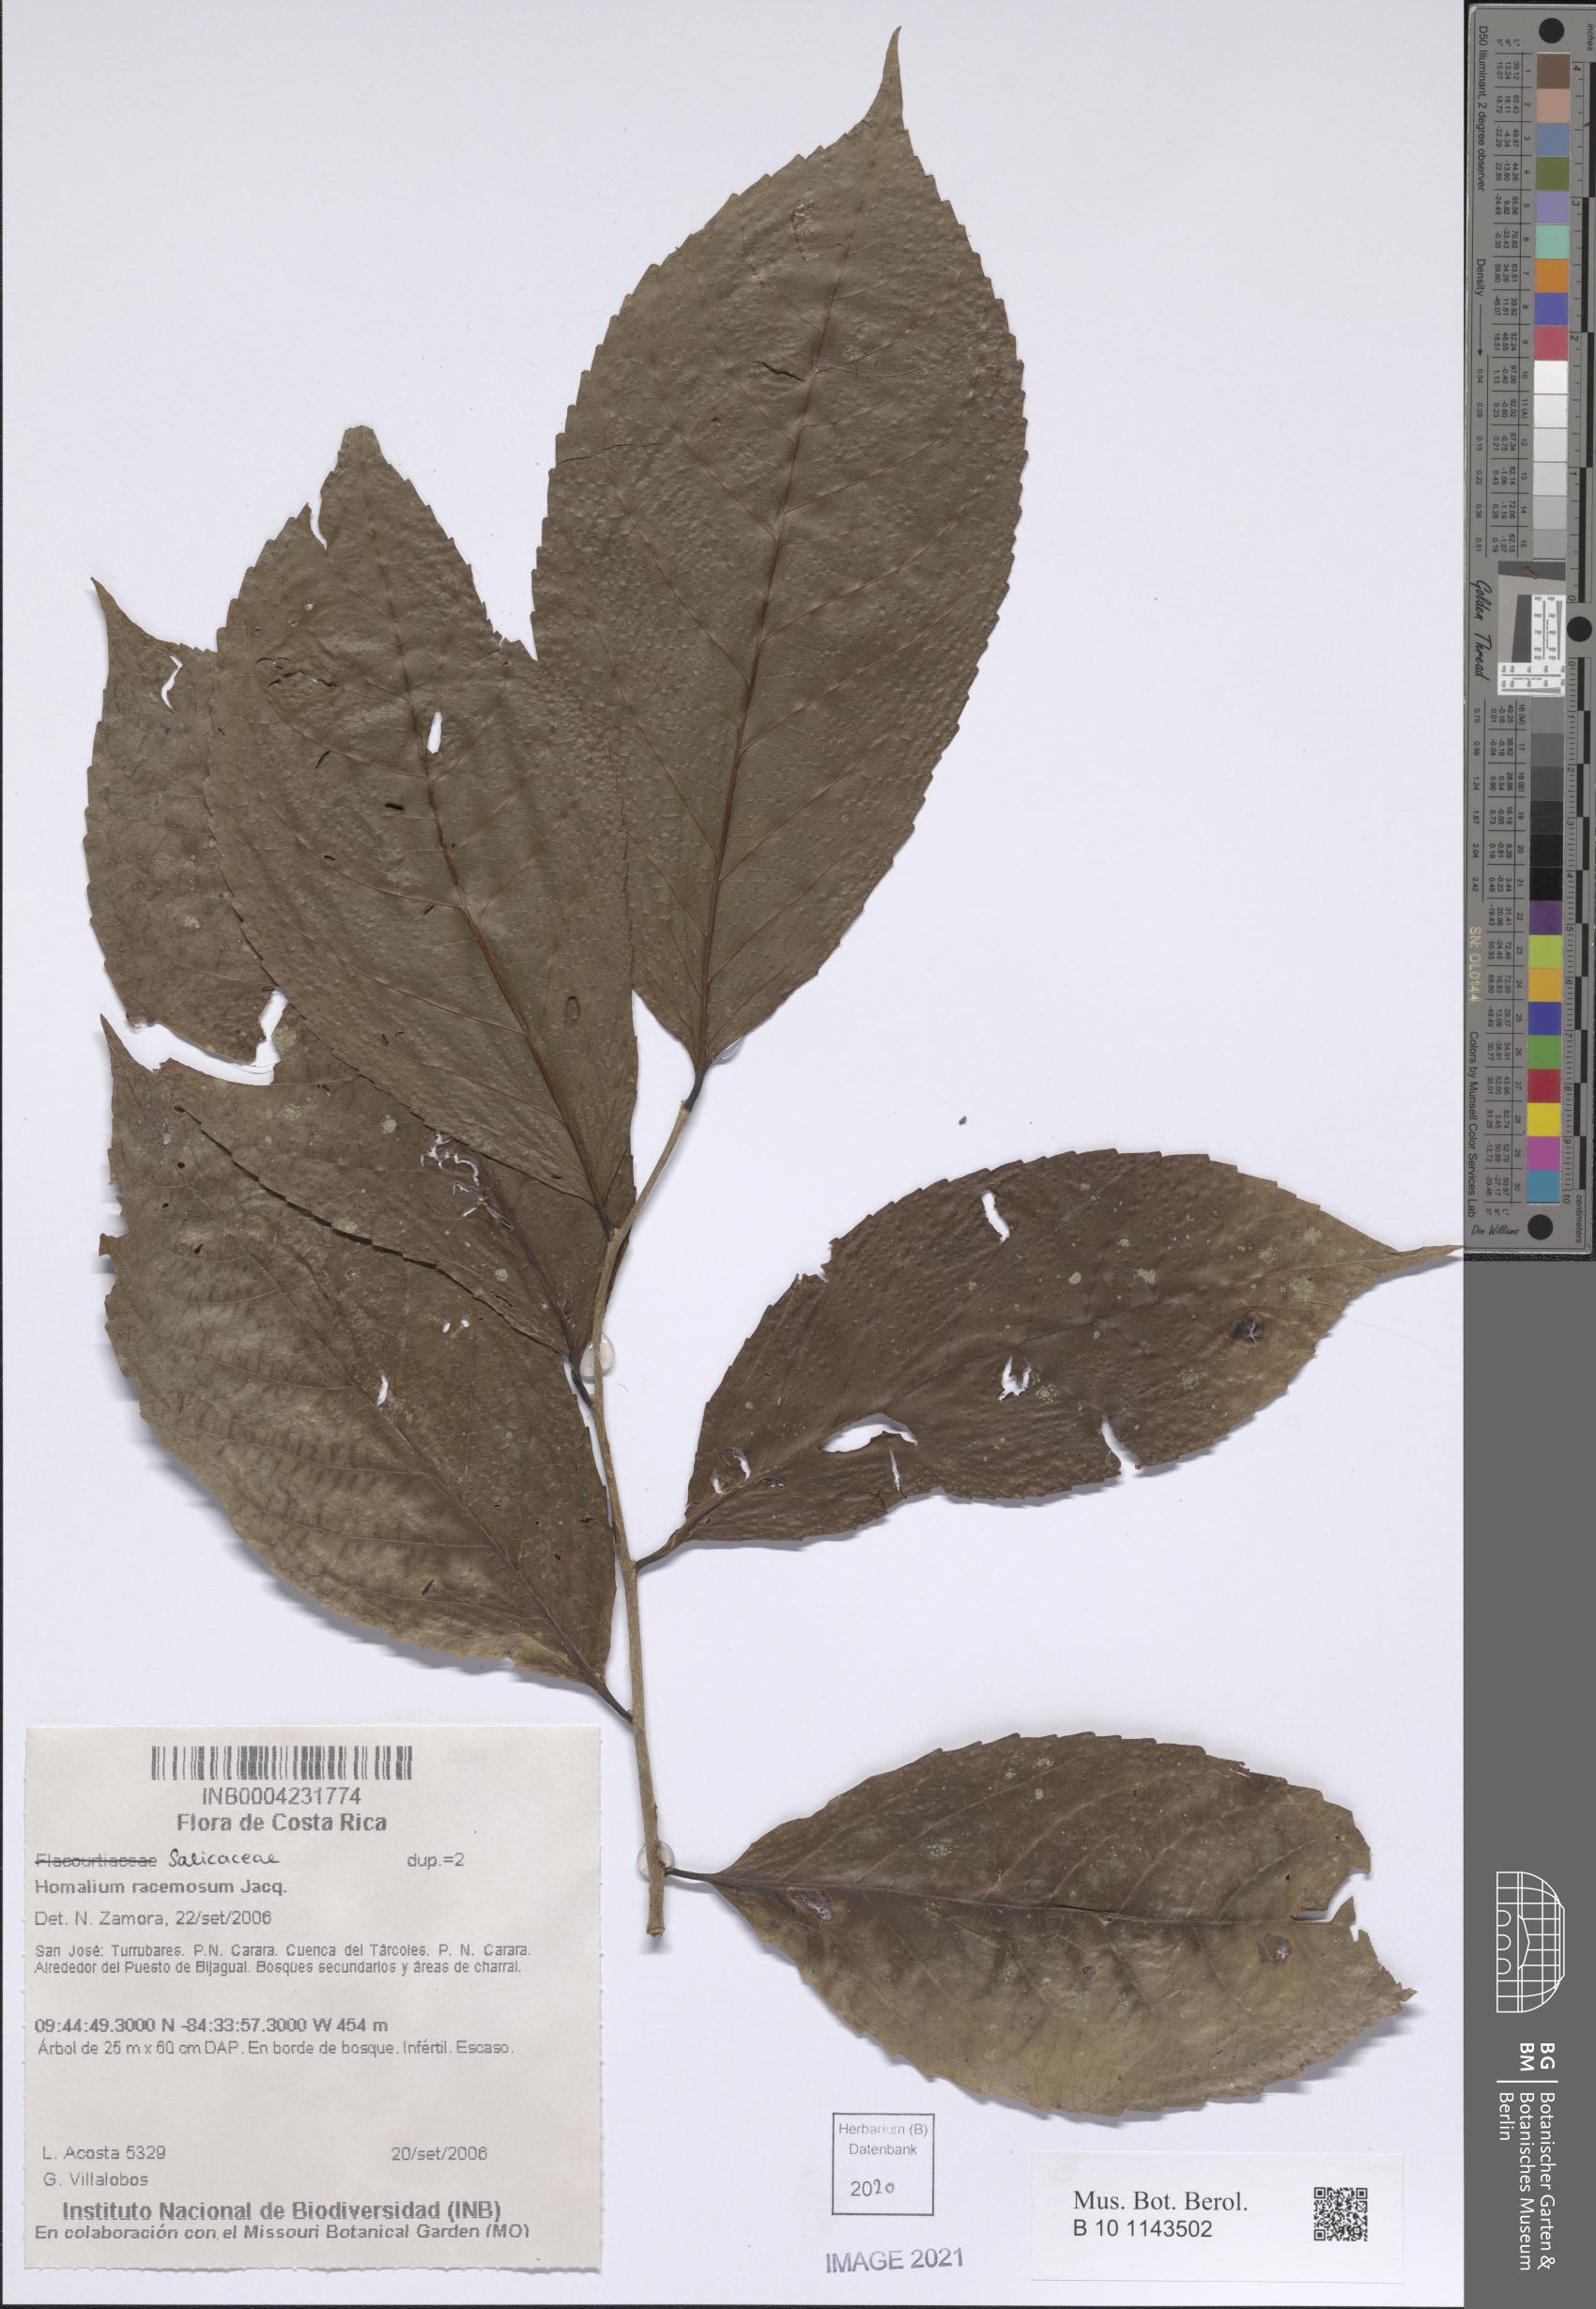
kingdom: Plantae
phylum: Tracheophyta
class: Magnoliopsida
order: Malpighiales
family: Salicaceae
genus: Homalium
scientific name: Homalium racemosum
